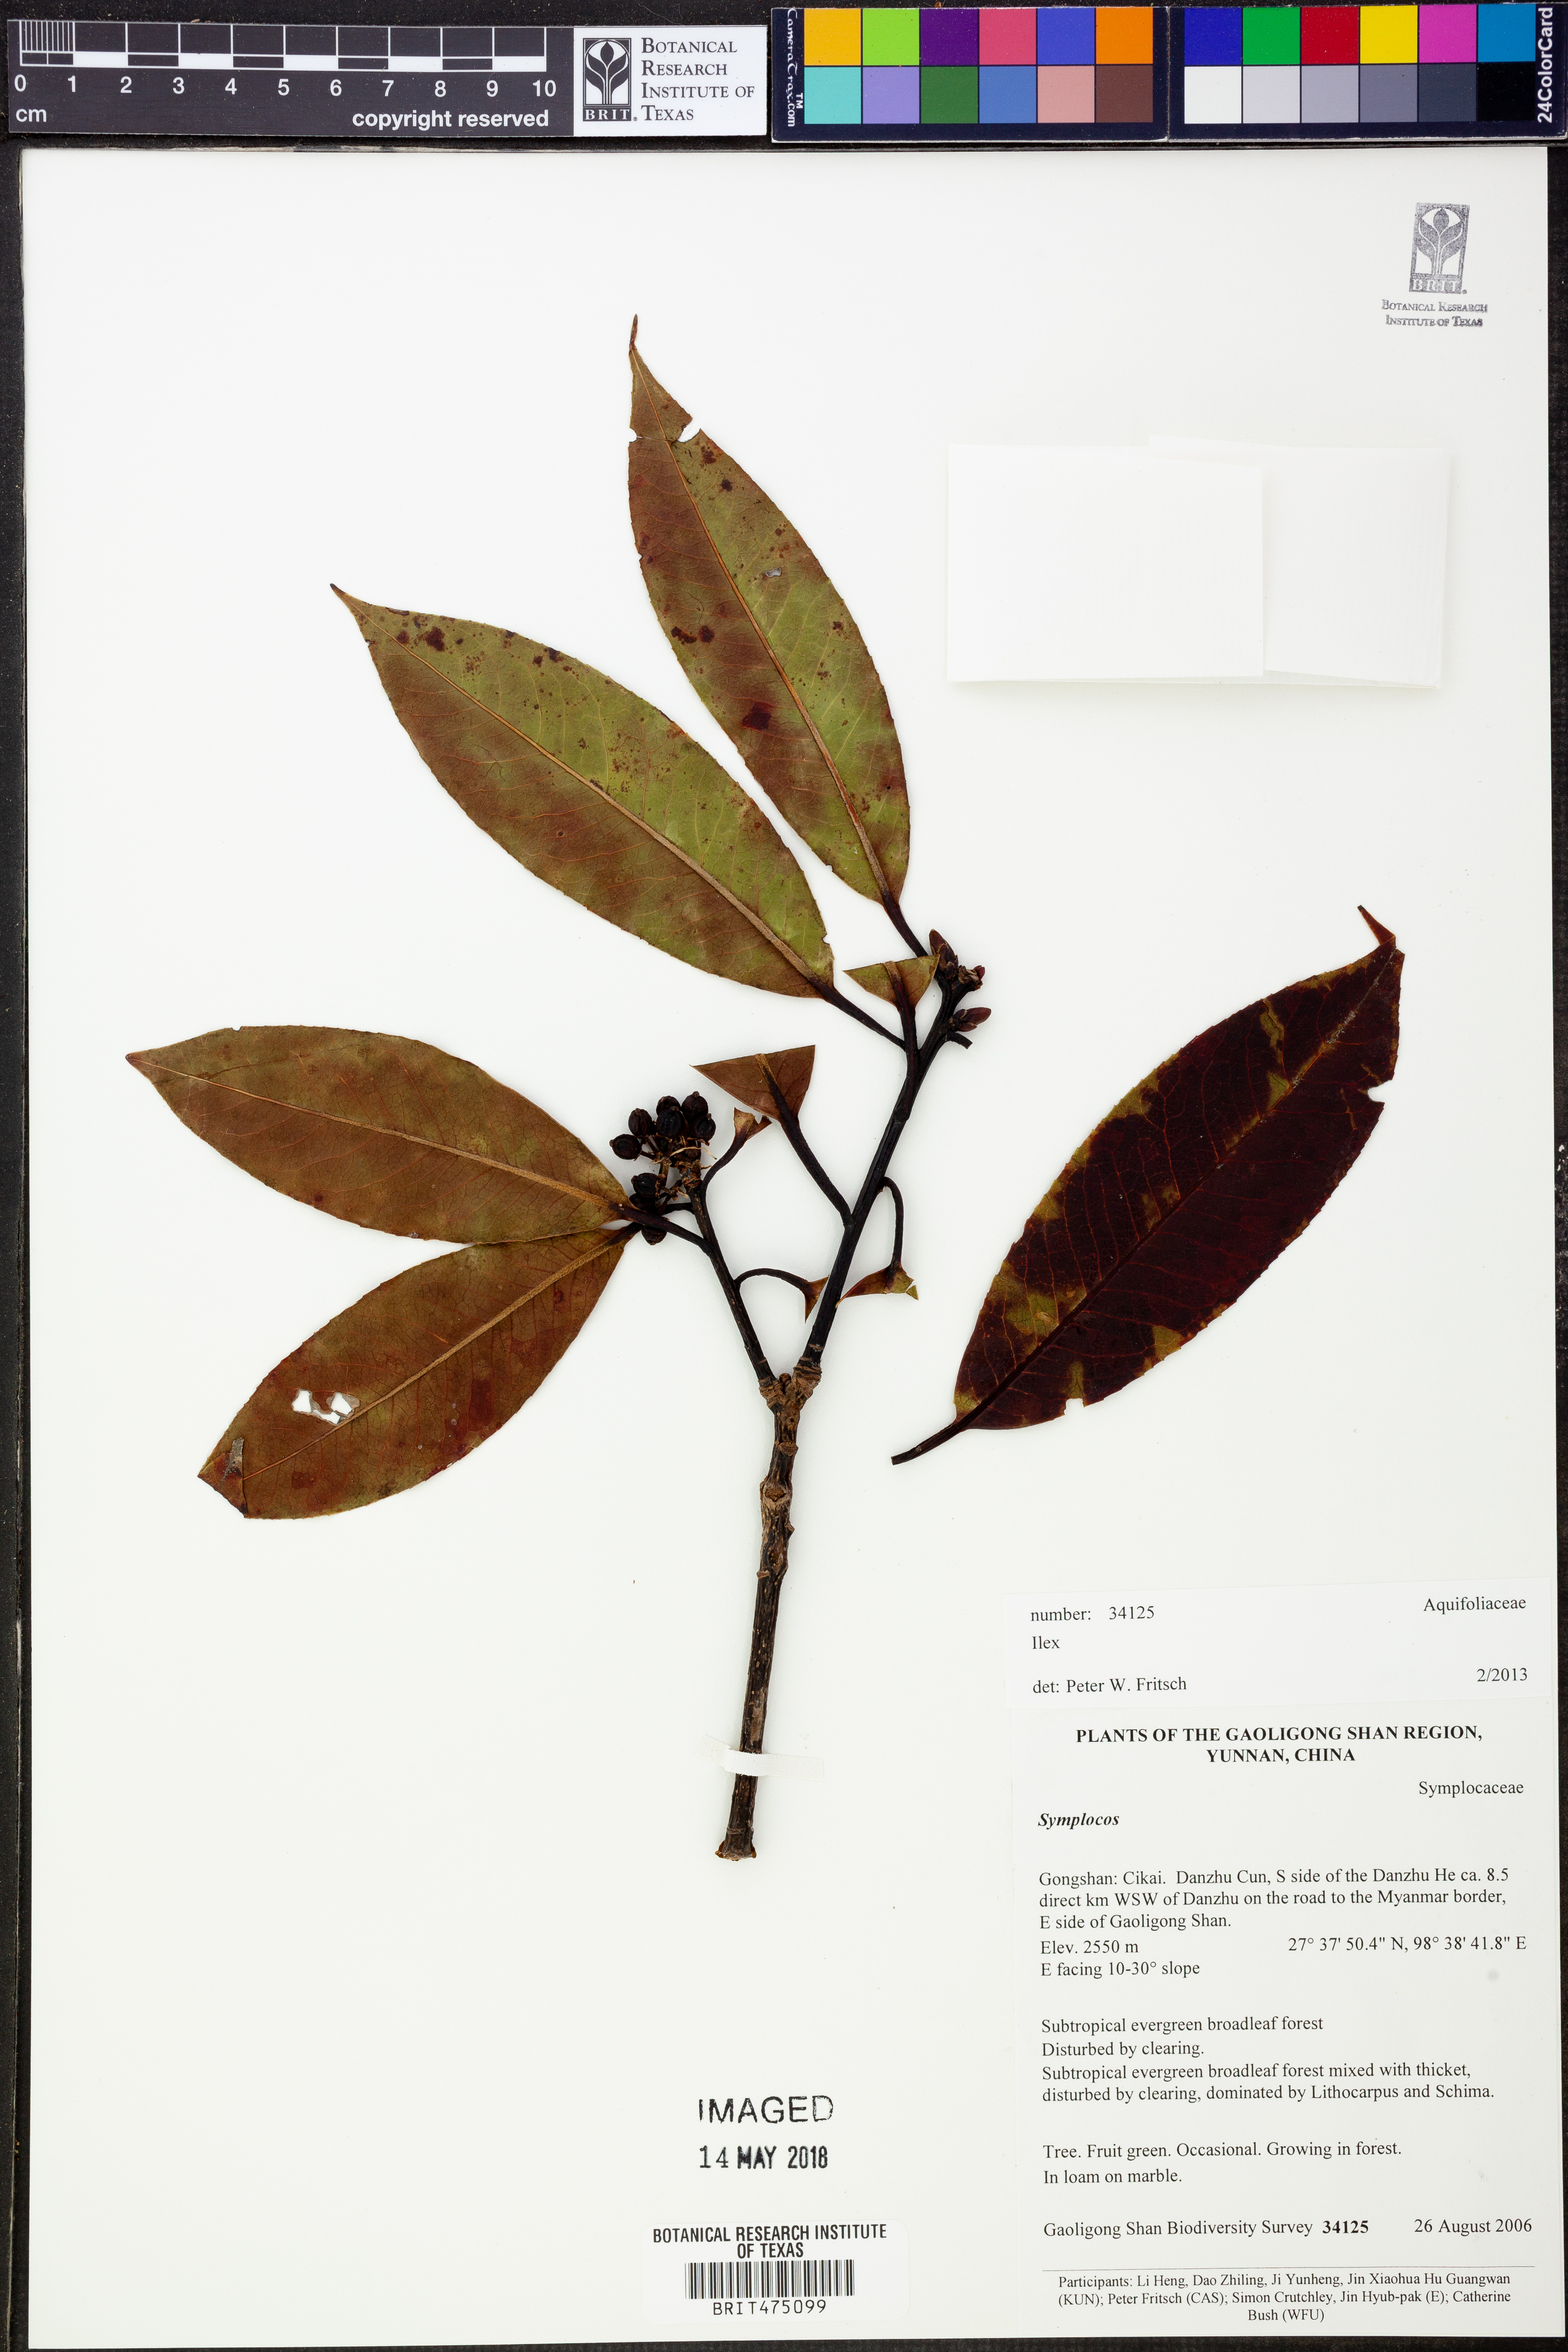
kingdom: Plantae
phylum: Tracheophyta
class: Magnoliopsida
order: Aquifoliales
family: Aquifoliaceae
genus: Ilex
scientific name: Ilex
